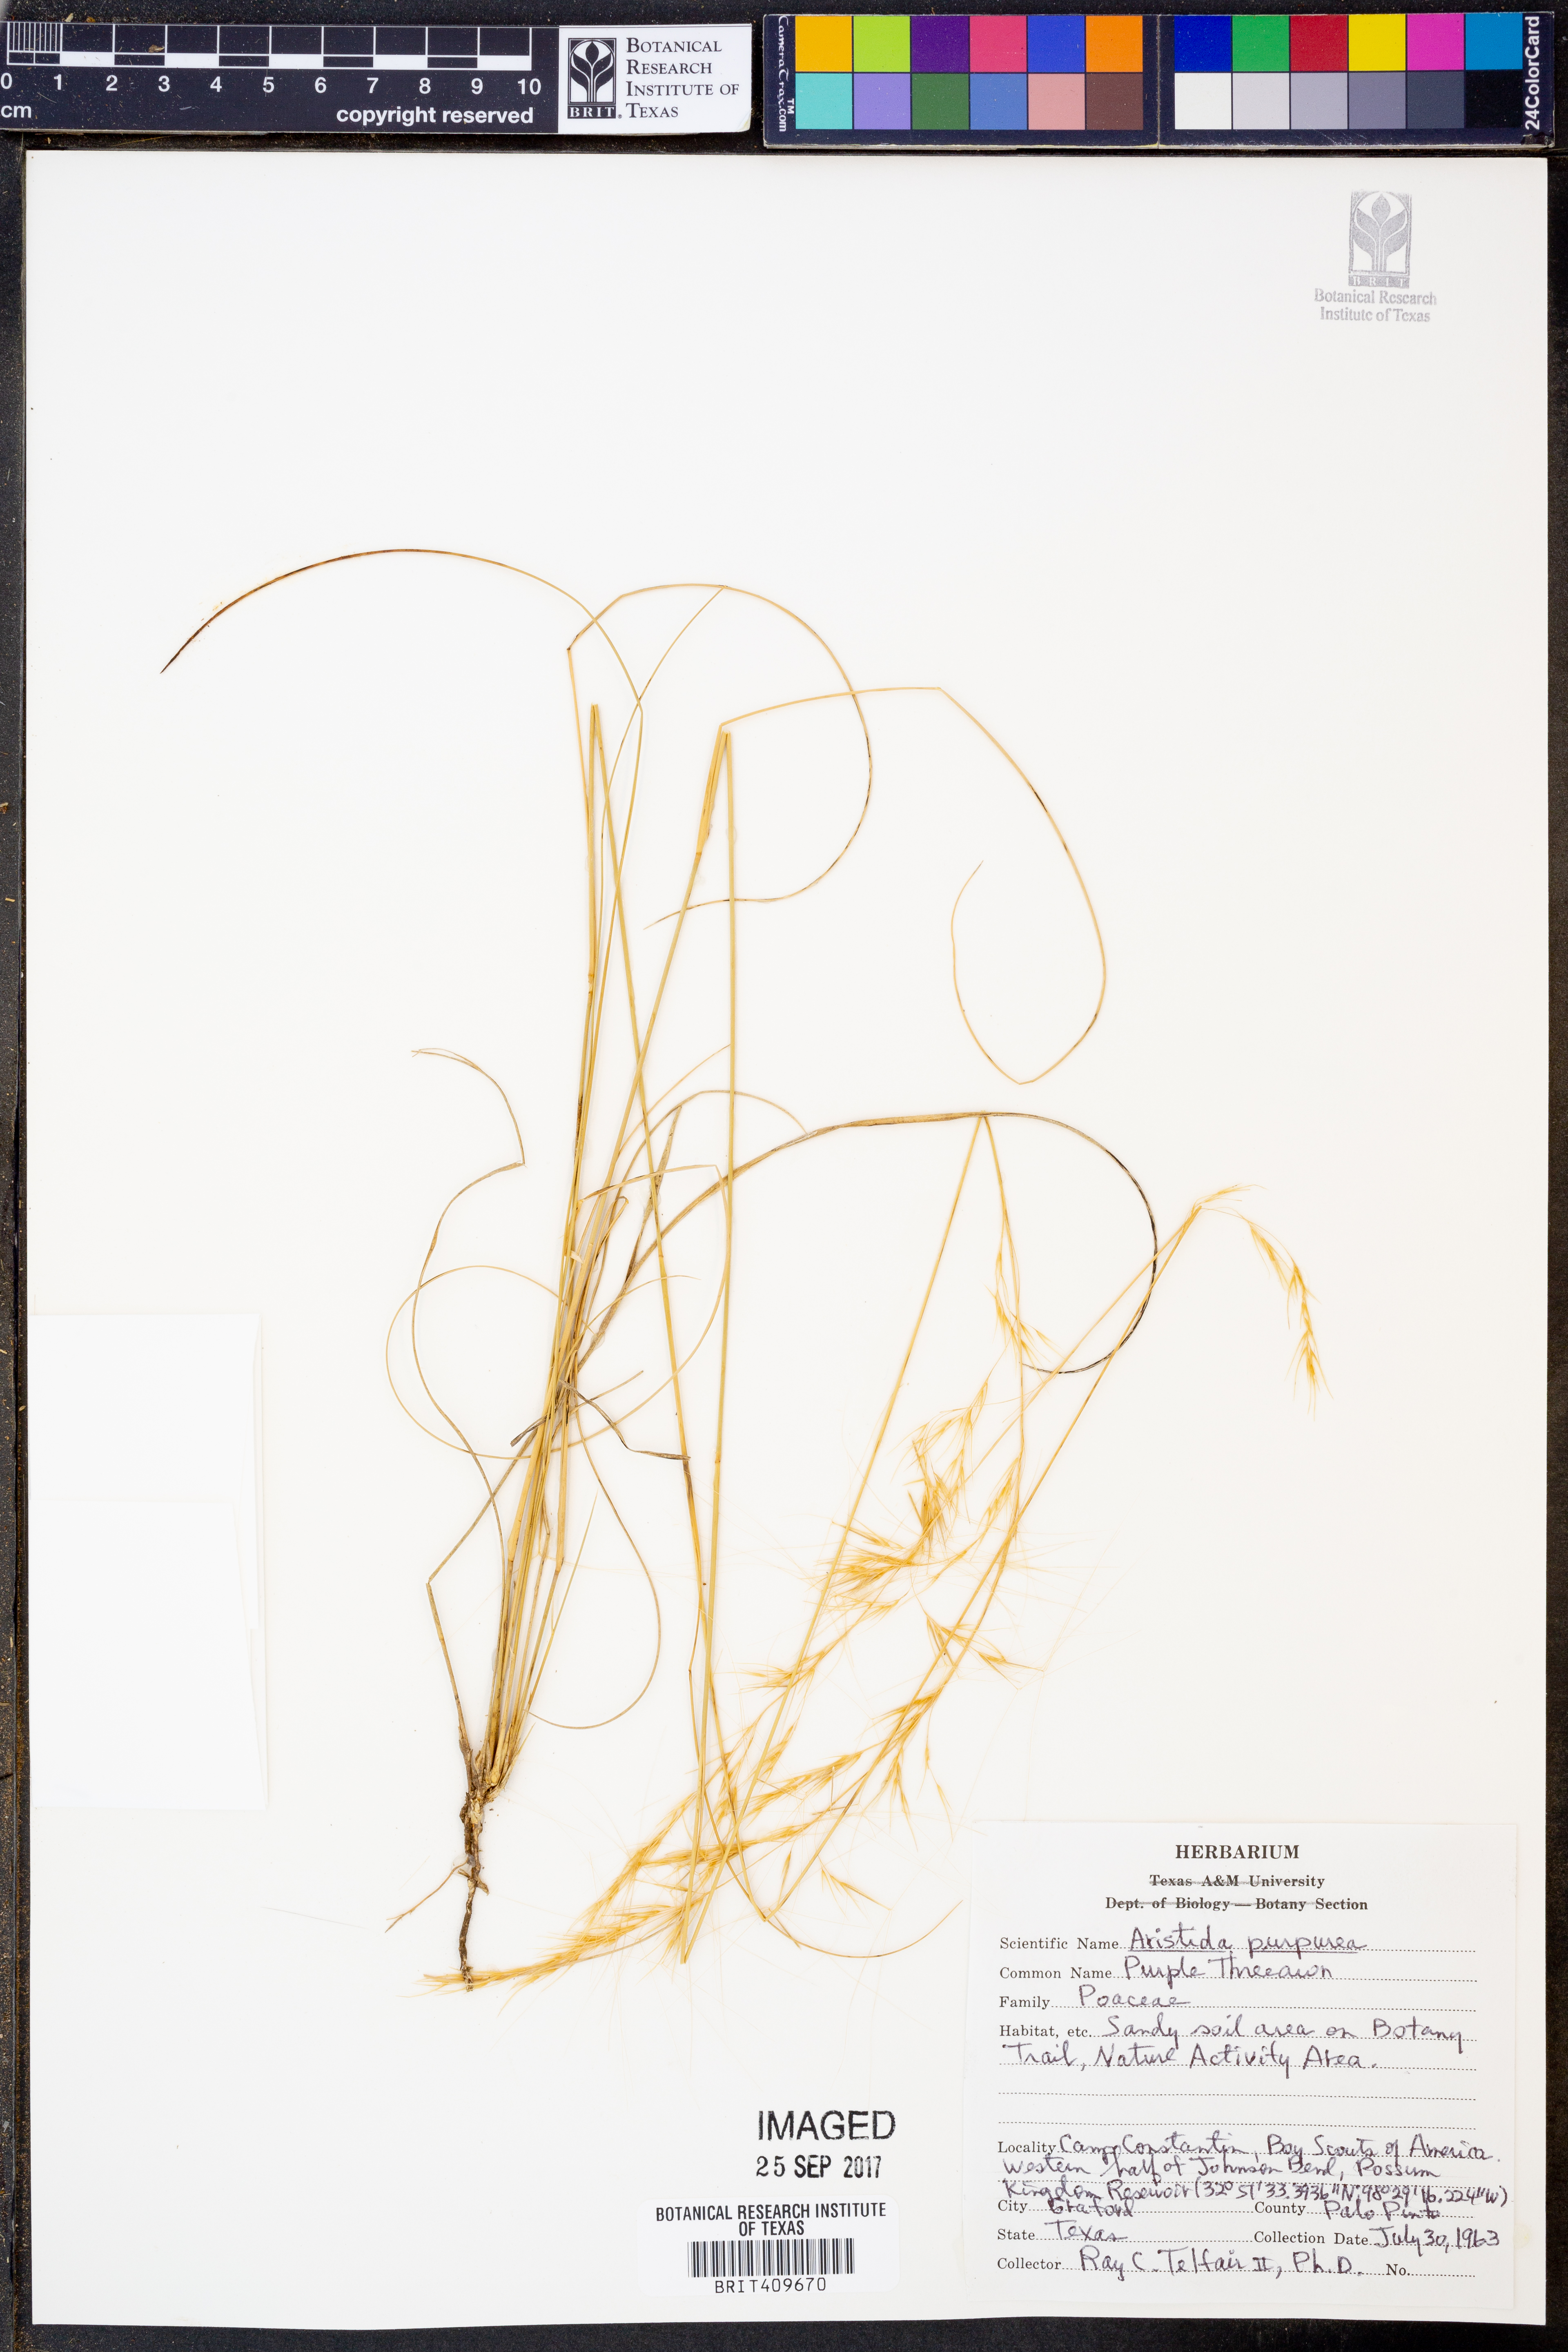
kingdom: Plantae
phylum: Tracheophyta
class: Liliopsida
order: Poales
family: Poaceae
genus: Aristida
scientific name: Aristida purpurea
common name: Purple threeawn
